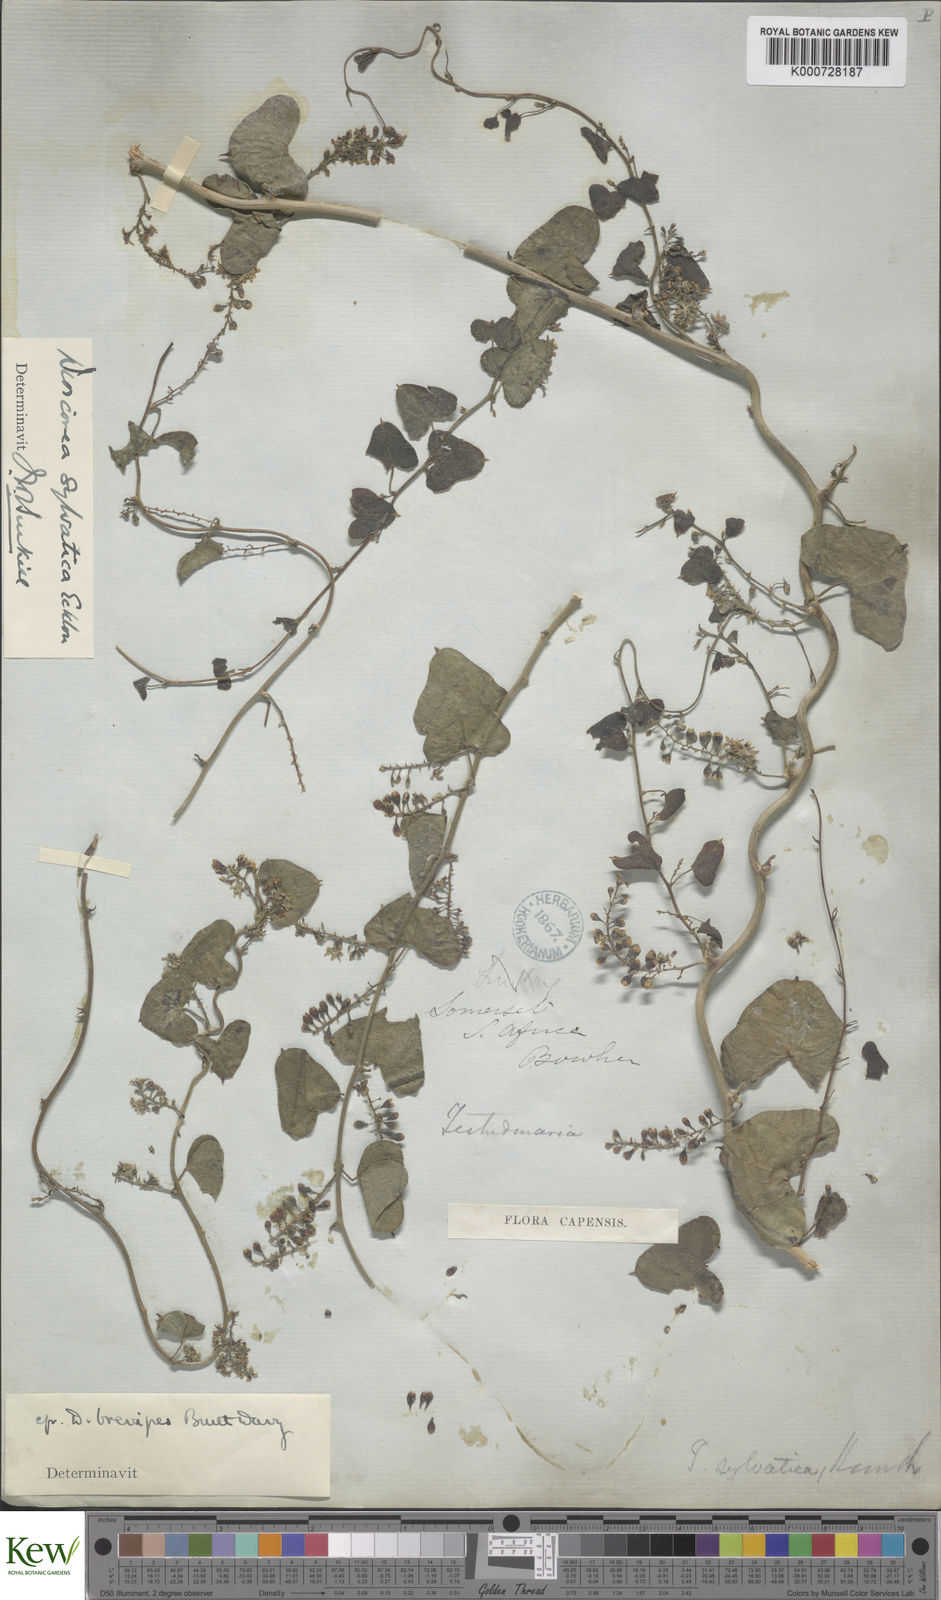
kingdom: Plantae
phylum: Tracheophyta
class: Liliopsida
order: Dioscoreales
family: Dioscoreaceae
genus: Dioscorea
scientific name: Dioscorea sylvatica
